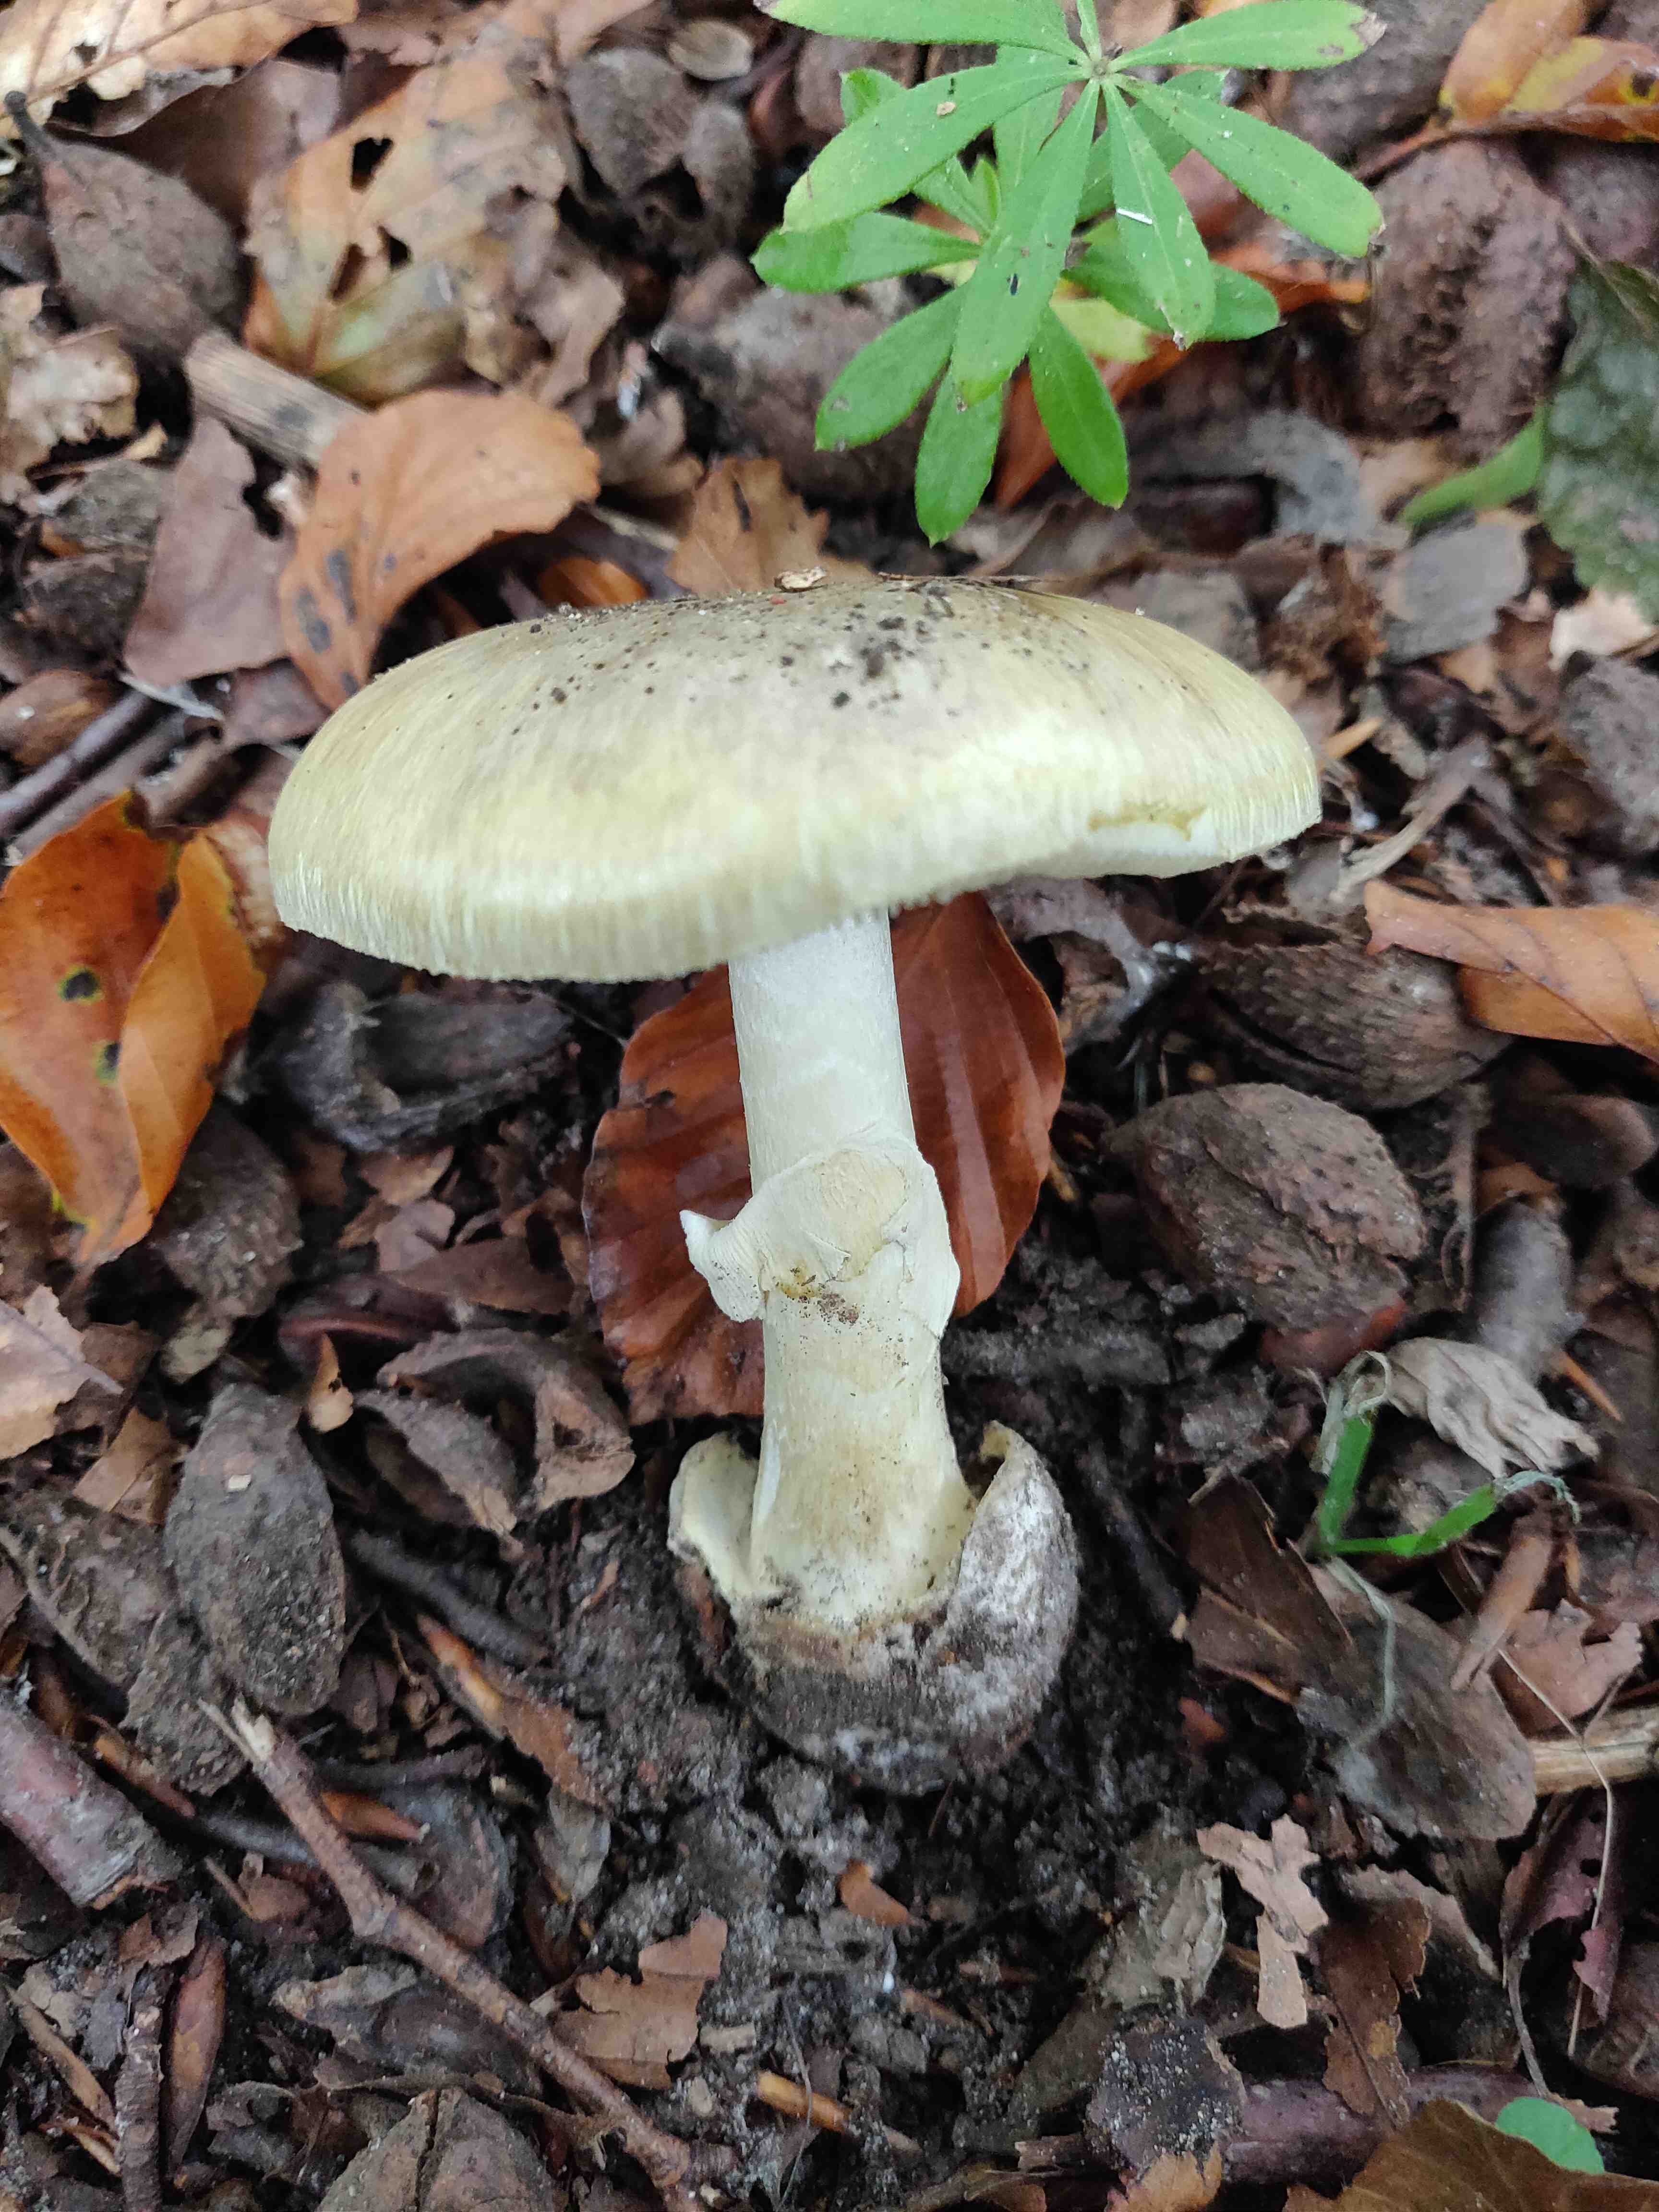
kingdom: Fungi
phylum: Basidiomycota
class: Agaricomycetes
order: Agaricales
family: Amanitaceae
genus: Amanita
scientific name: Amanita phalloides
